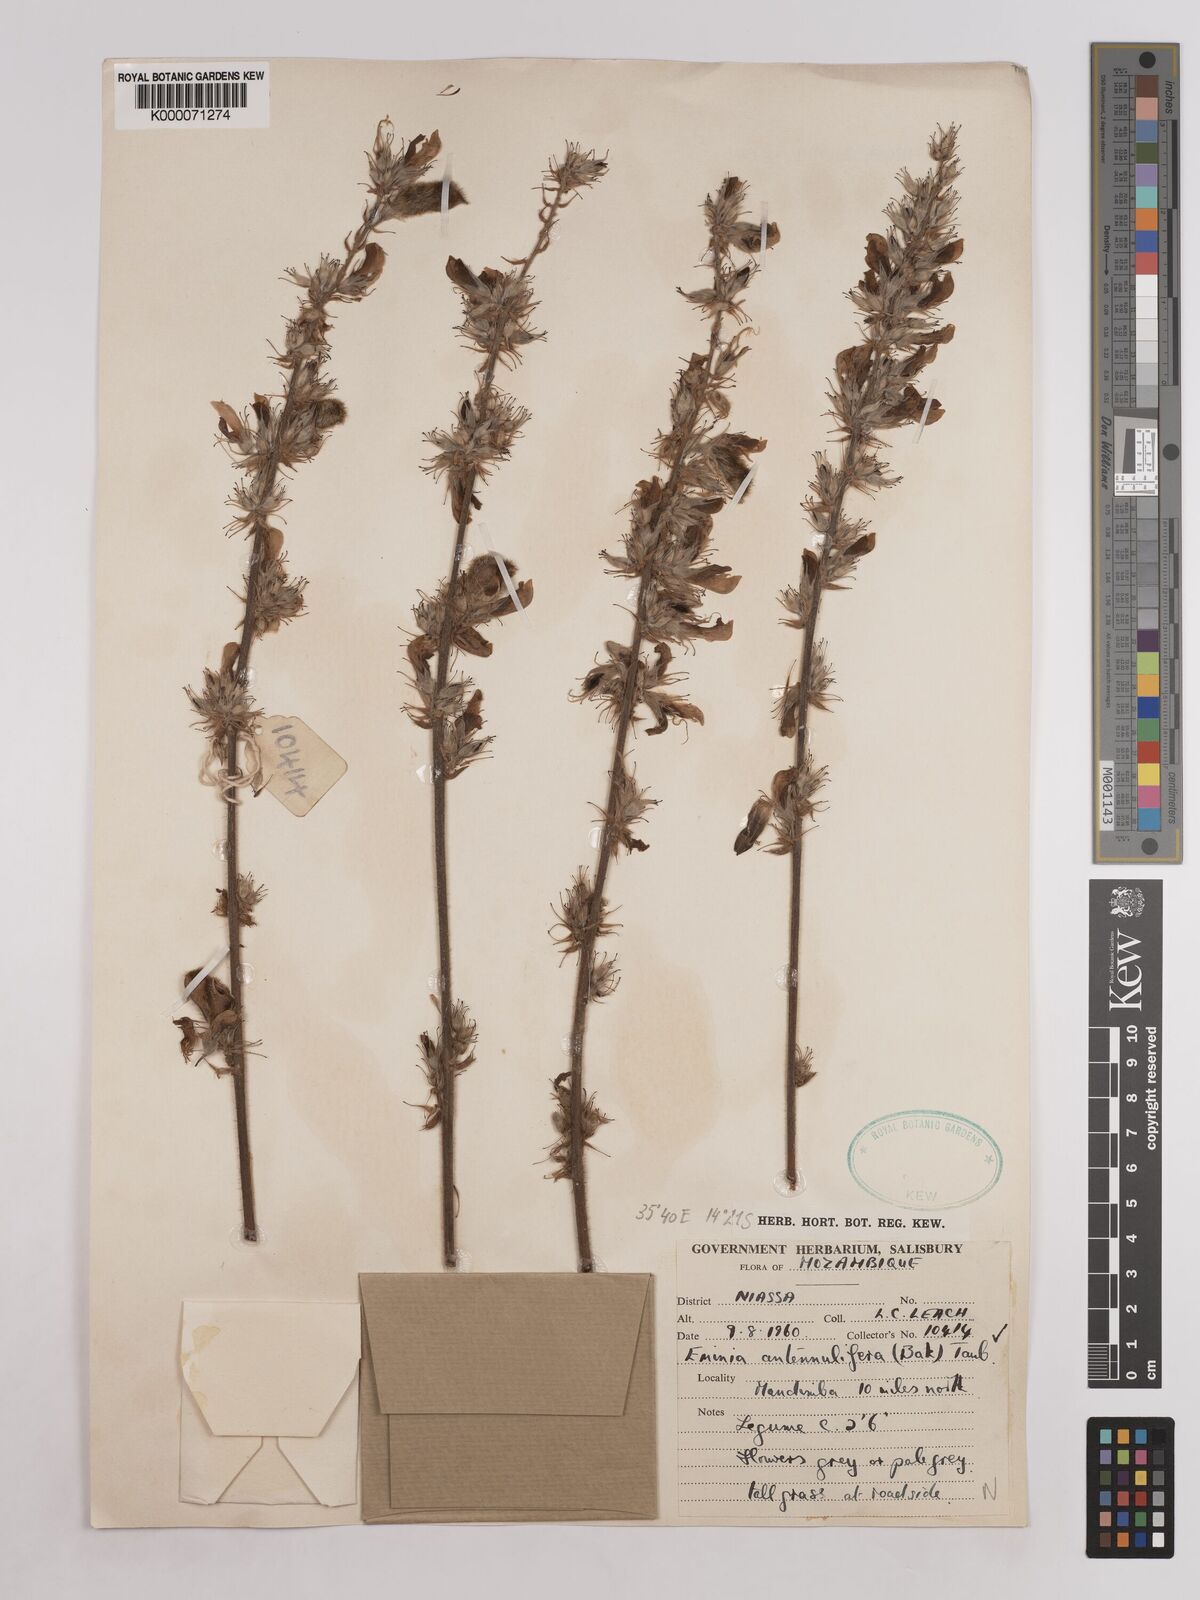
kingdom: Plantae
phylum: Tracheophyta
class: Magnoliopsida
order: Fabales
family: Fabaceae
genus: Eminia
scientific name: Eminia antennulifera
